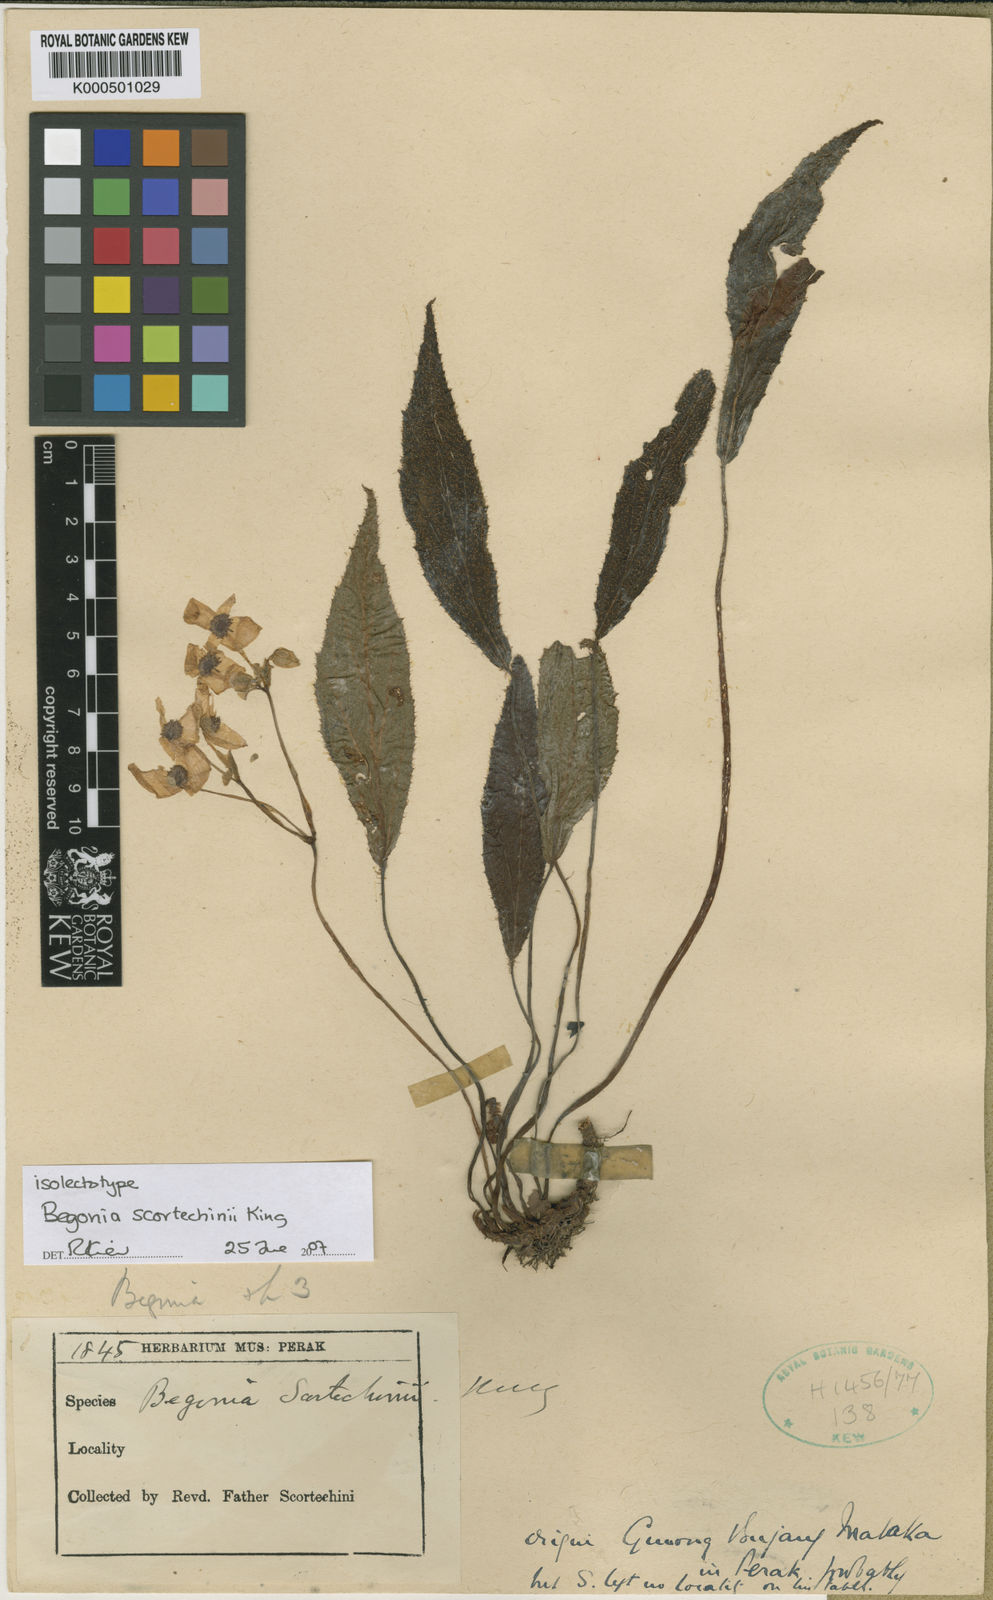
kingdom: Plantae
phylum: Tracheophyta
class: Magnoliopsida
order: Cucurbitales
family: Begoniaceae
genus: Begonia
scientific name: Begonia scortechinii
